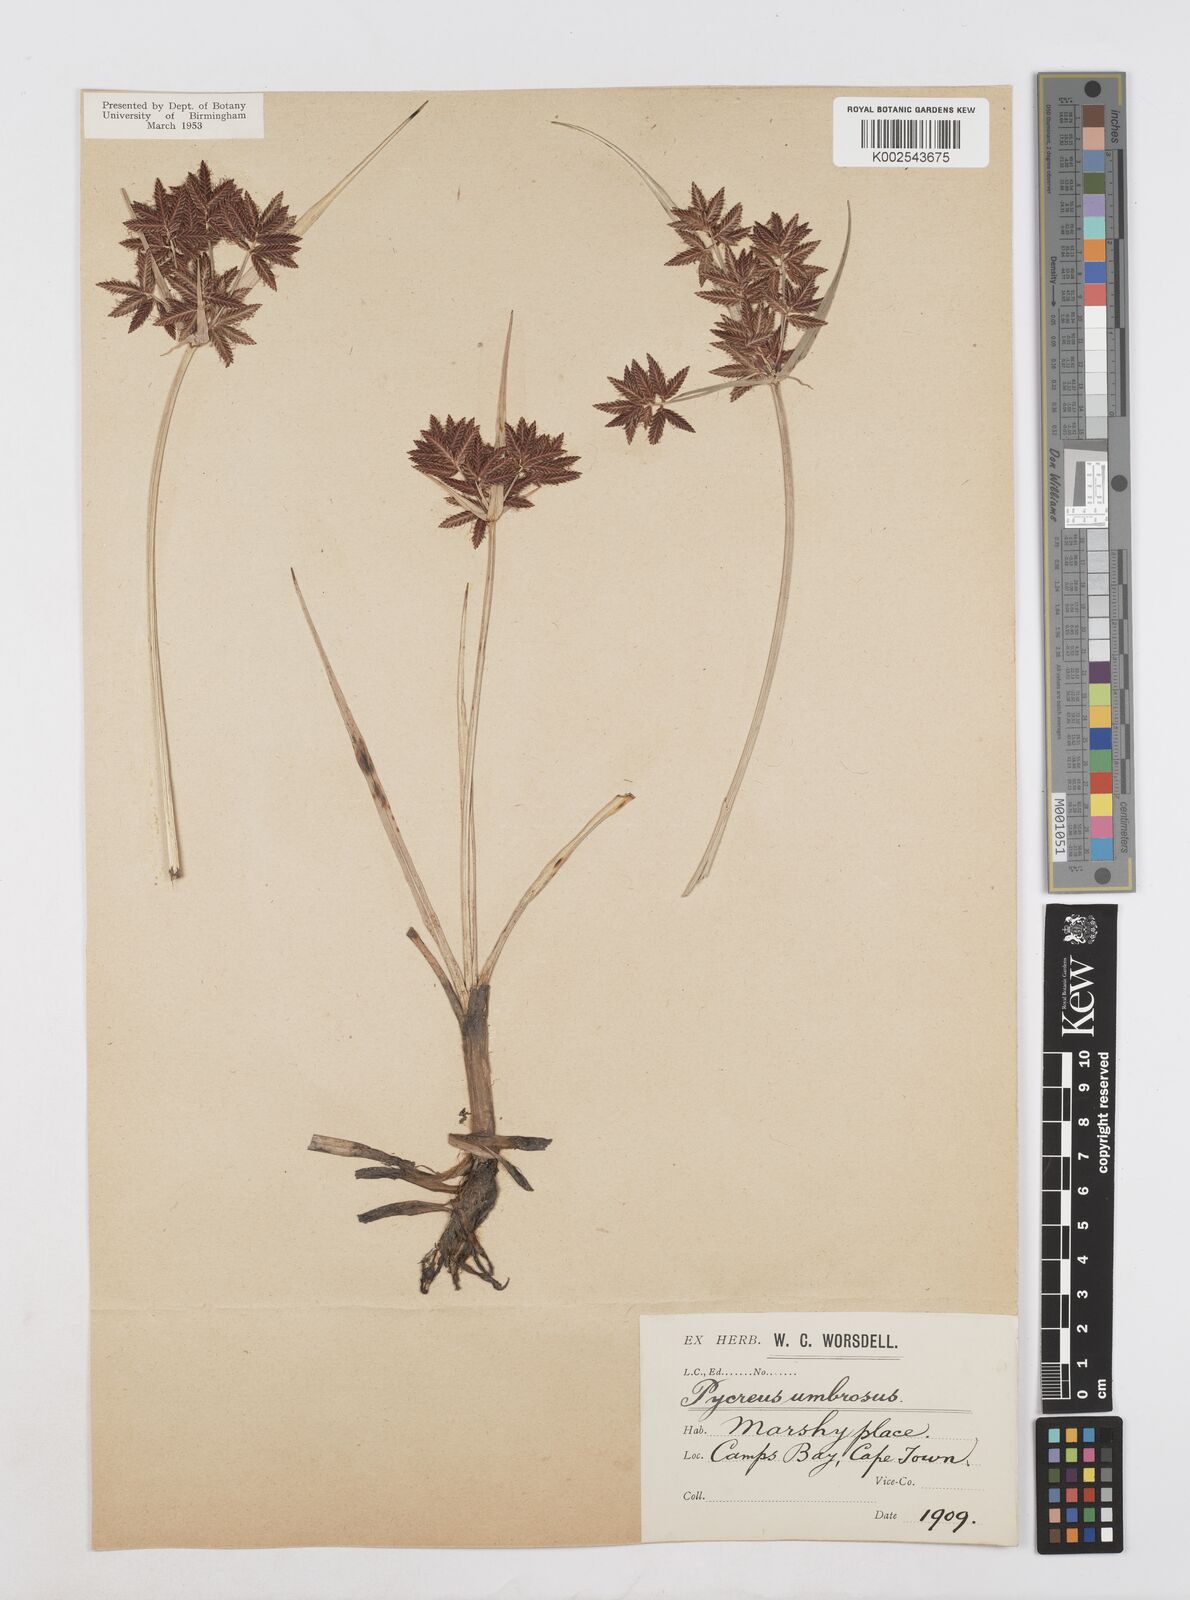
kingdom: Plantae
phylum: Tracheophyta
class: Liliopsida
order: Poales
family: Cyperaceae
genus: Cyperus
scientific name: Cyperus nitidus
